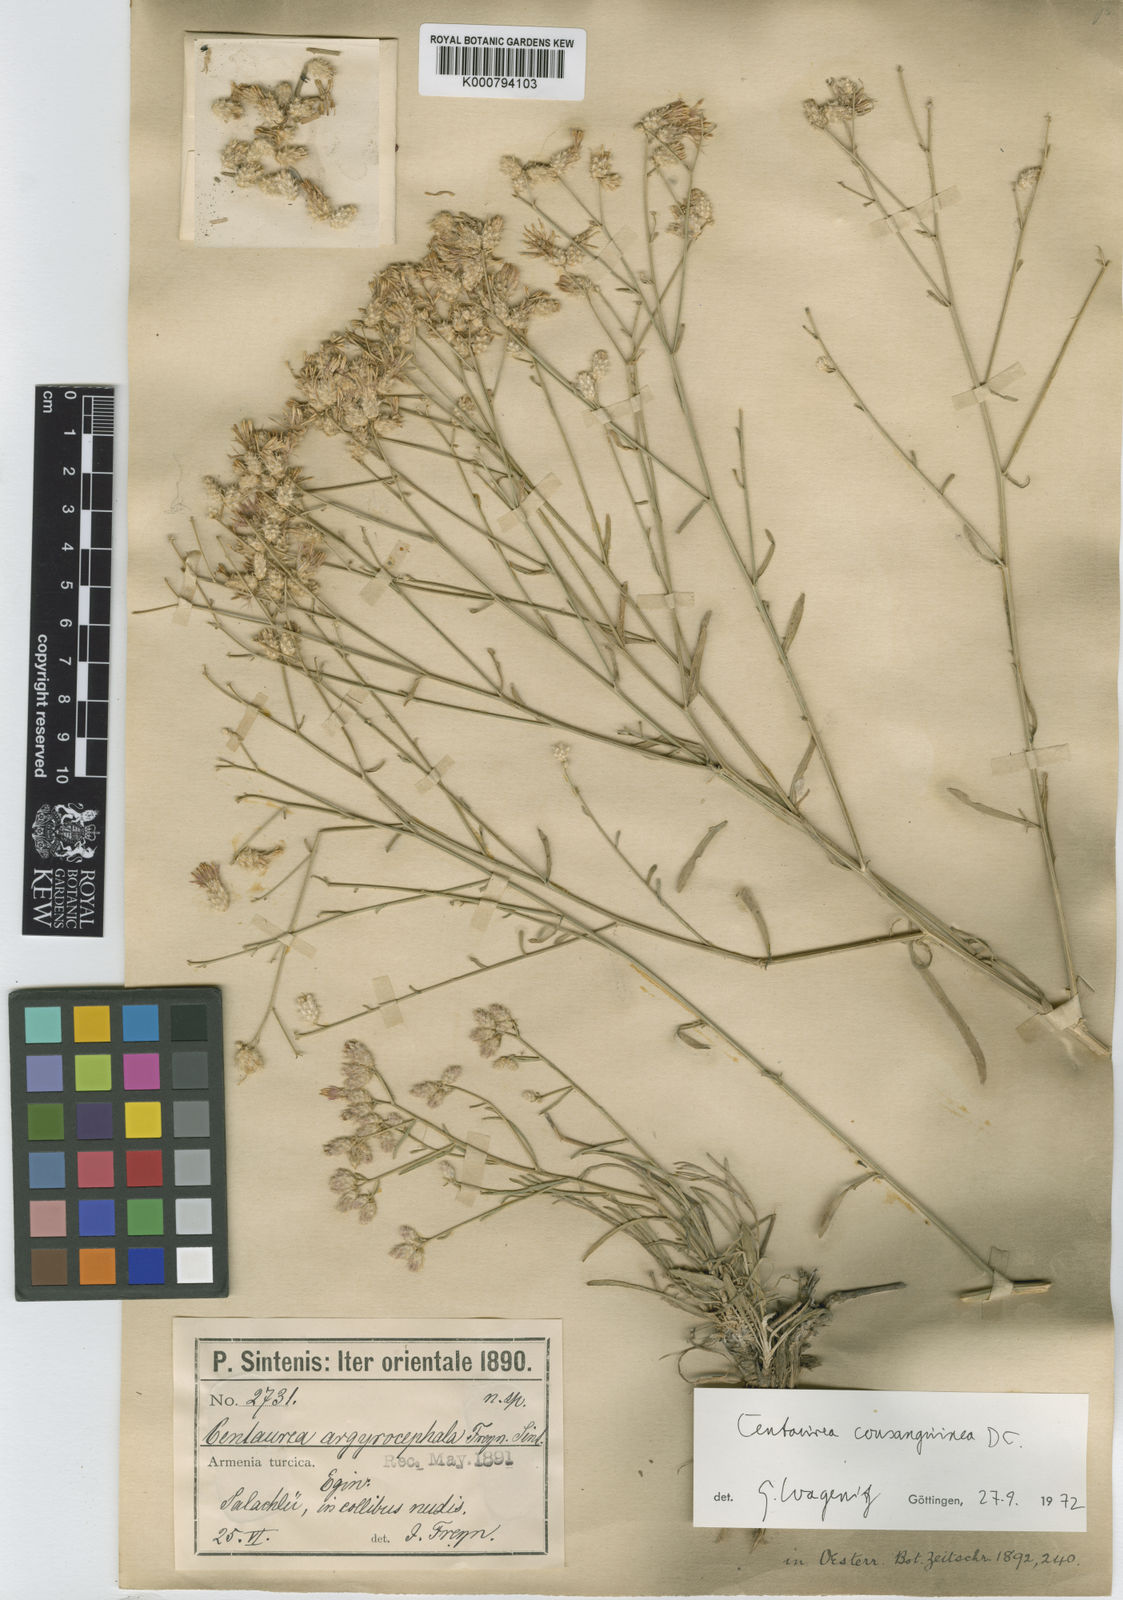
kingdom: Plantae
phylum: Tracheophyta
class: Magnoliopsida
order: Asterales
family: Asteraceae
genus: Centaurea
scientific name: Centaurea consanguinea
